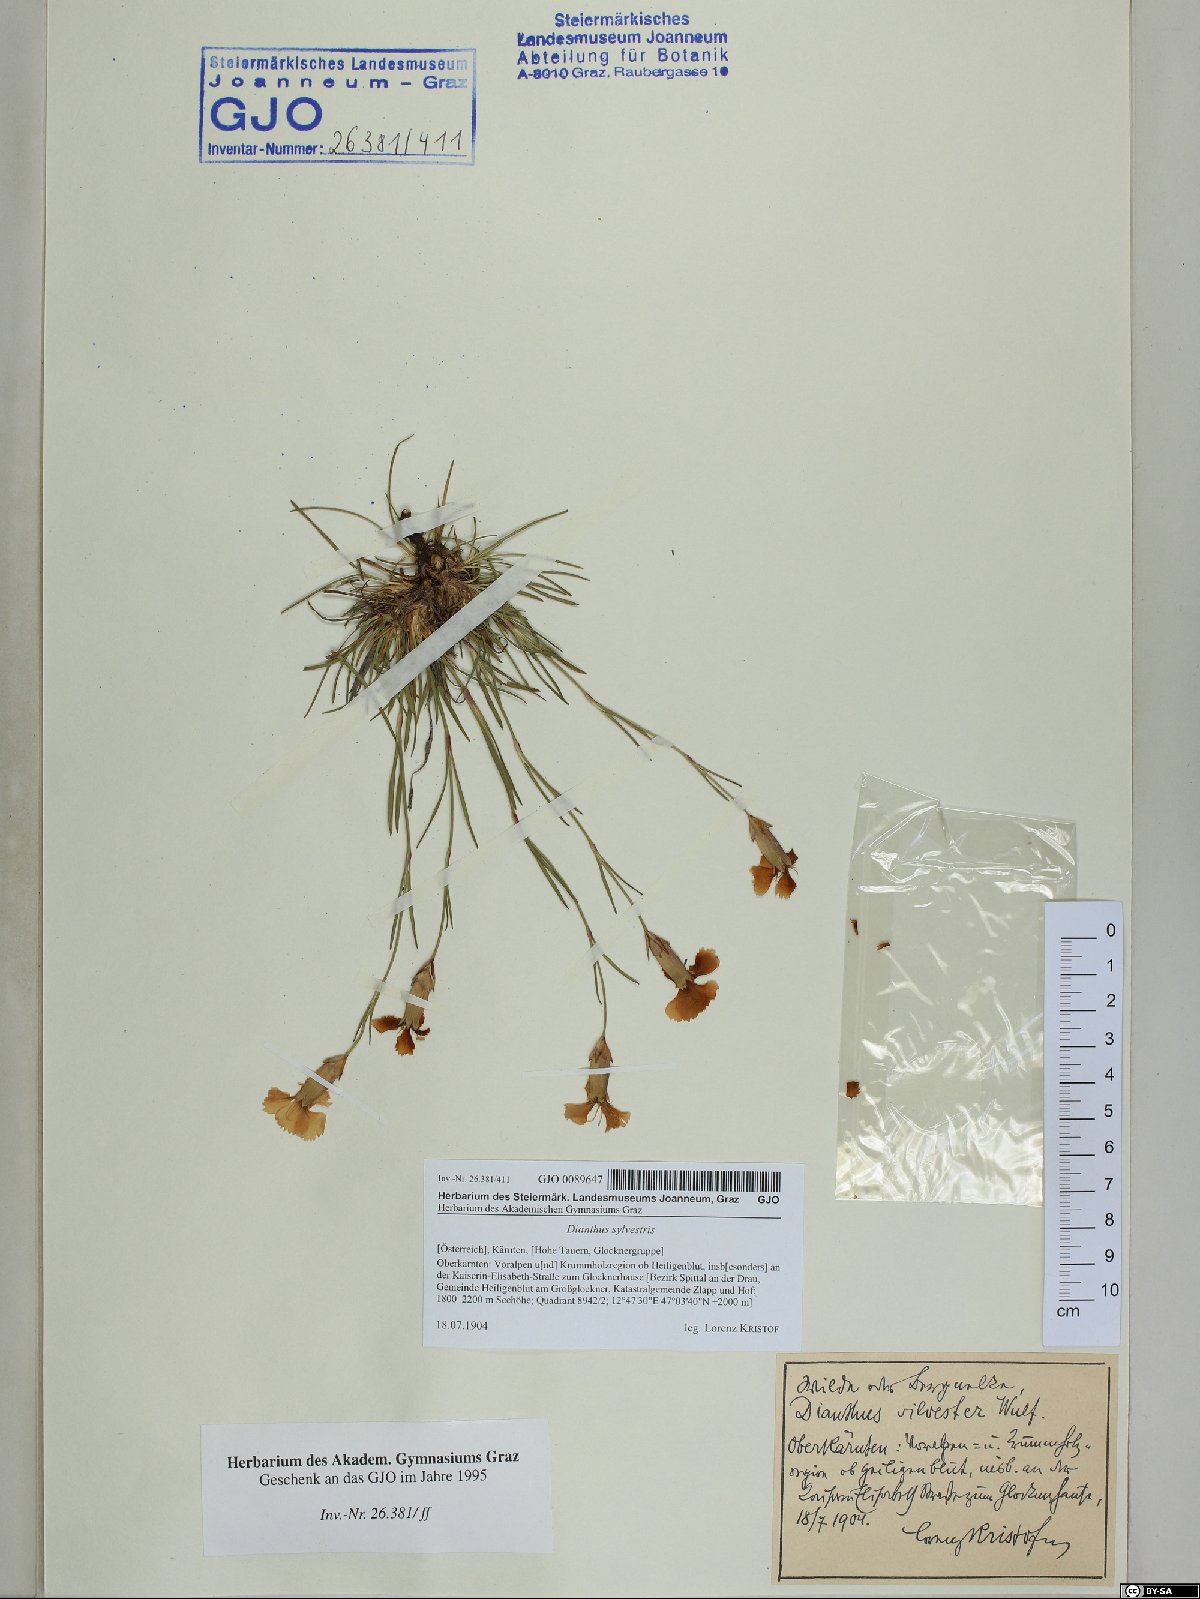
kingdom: Plantae
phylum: Tracheophyta
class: Magnoliopsida
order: Caryophyllales
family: Caryophyllaceae
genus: Dianthus
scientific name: Dianthus sylvestris
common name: Wood pink
